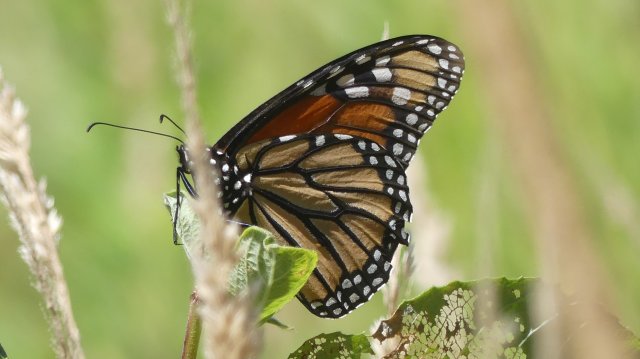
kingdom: Animalia
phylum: Arthropoda
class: Insecta
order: Lepidoptera
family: Nymphalidae
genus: Danaus
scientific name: Danaus plexippus
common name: Monarch
